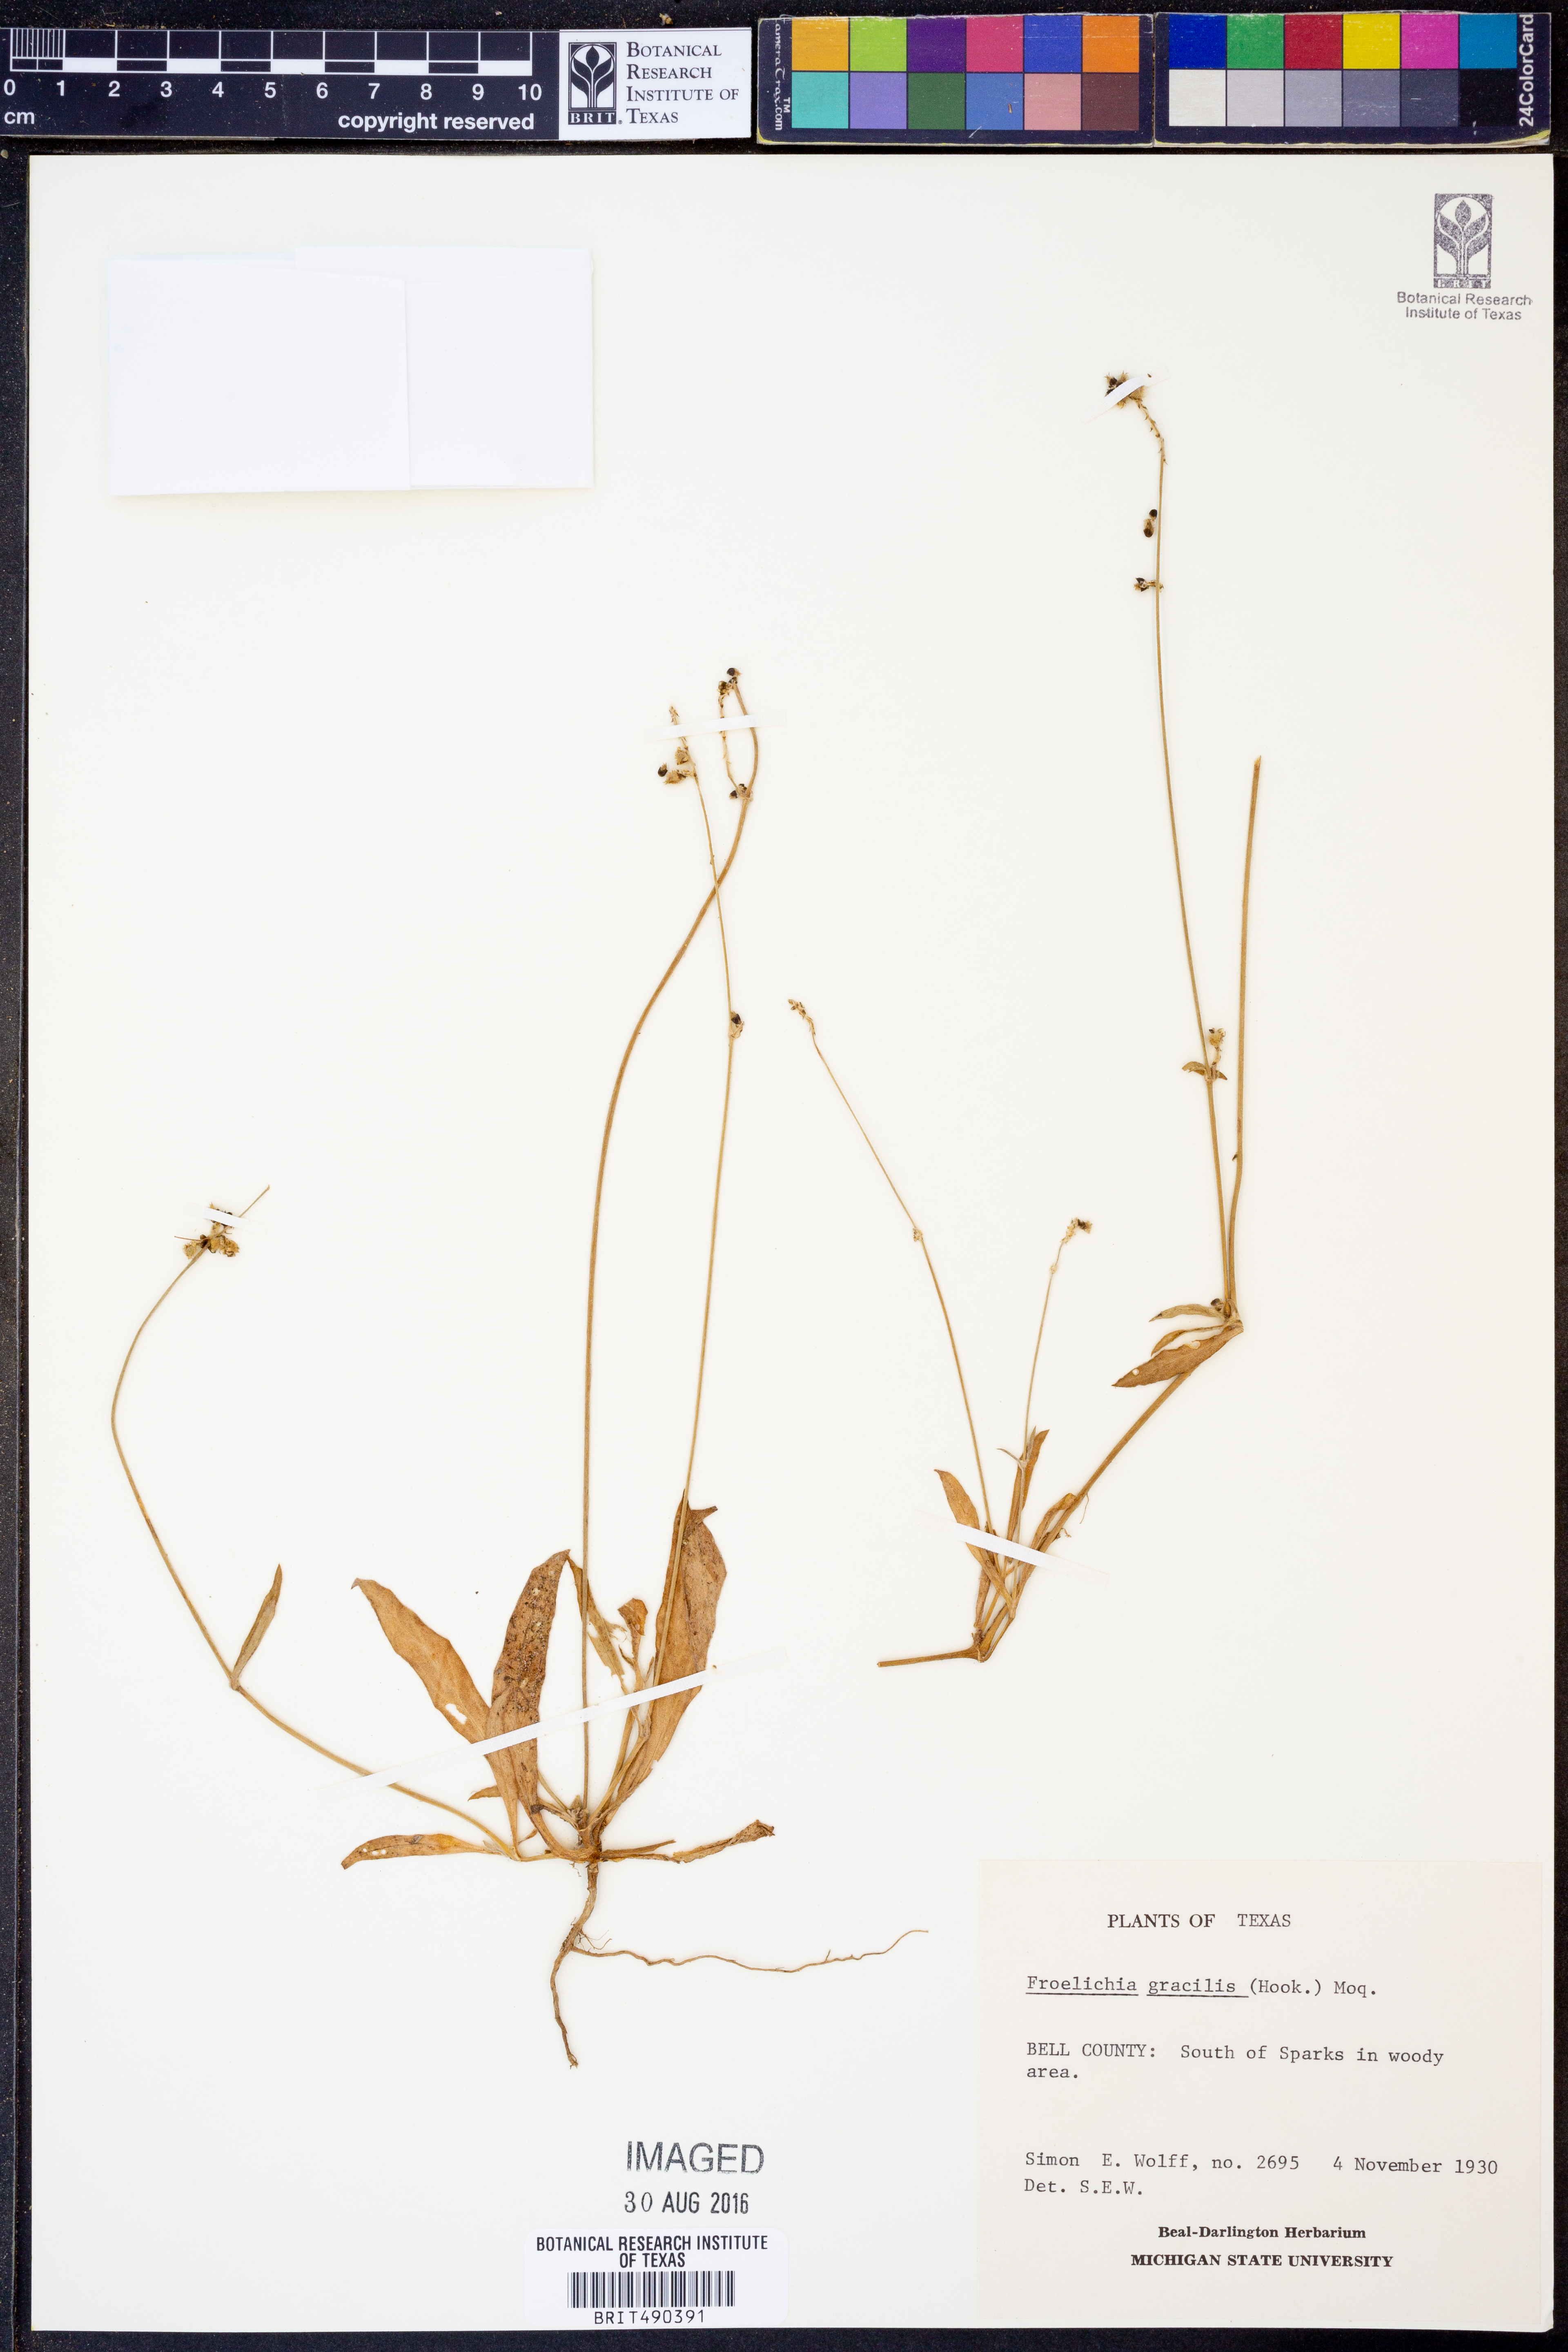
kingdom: Plantae
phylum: Tracheophyta
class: Magnoliopsida
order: Caryophyllales
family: Amaranthaceae
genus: Froelichia
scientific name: Froelichia gracilis
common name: Slender cottonweed
